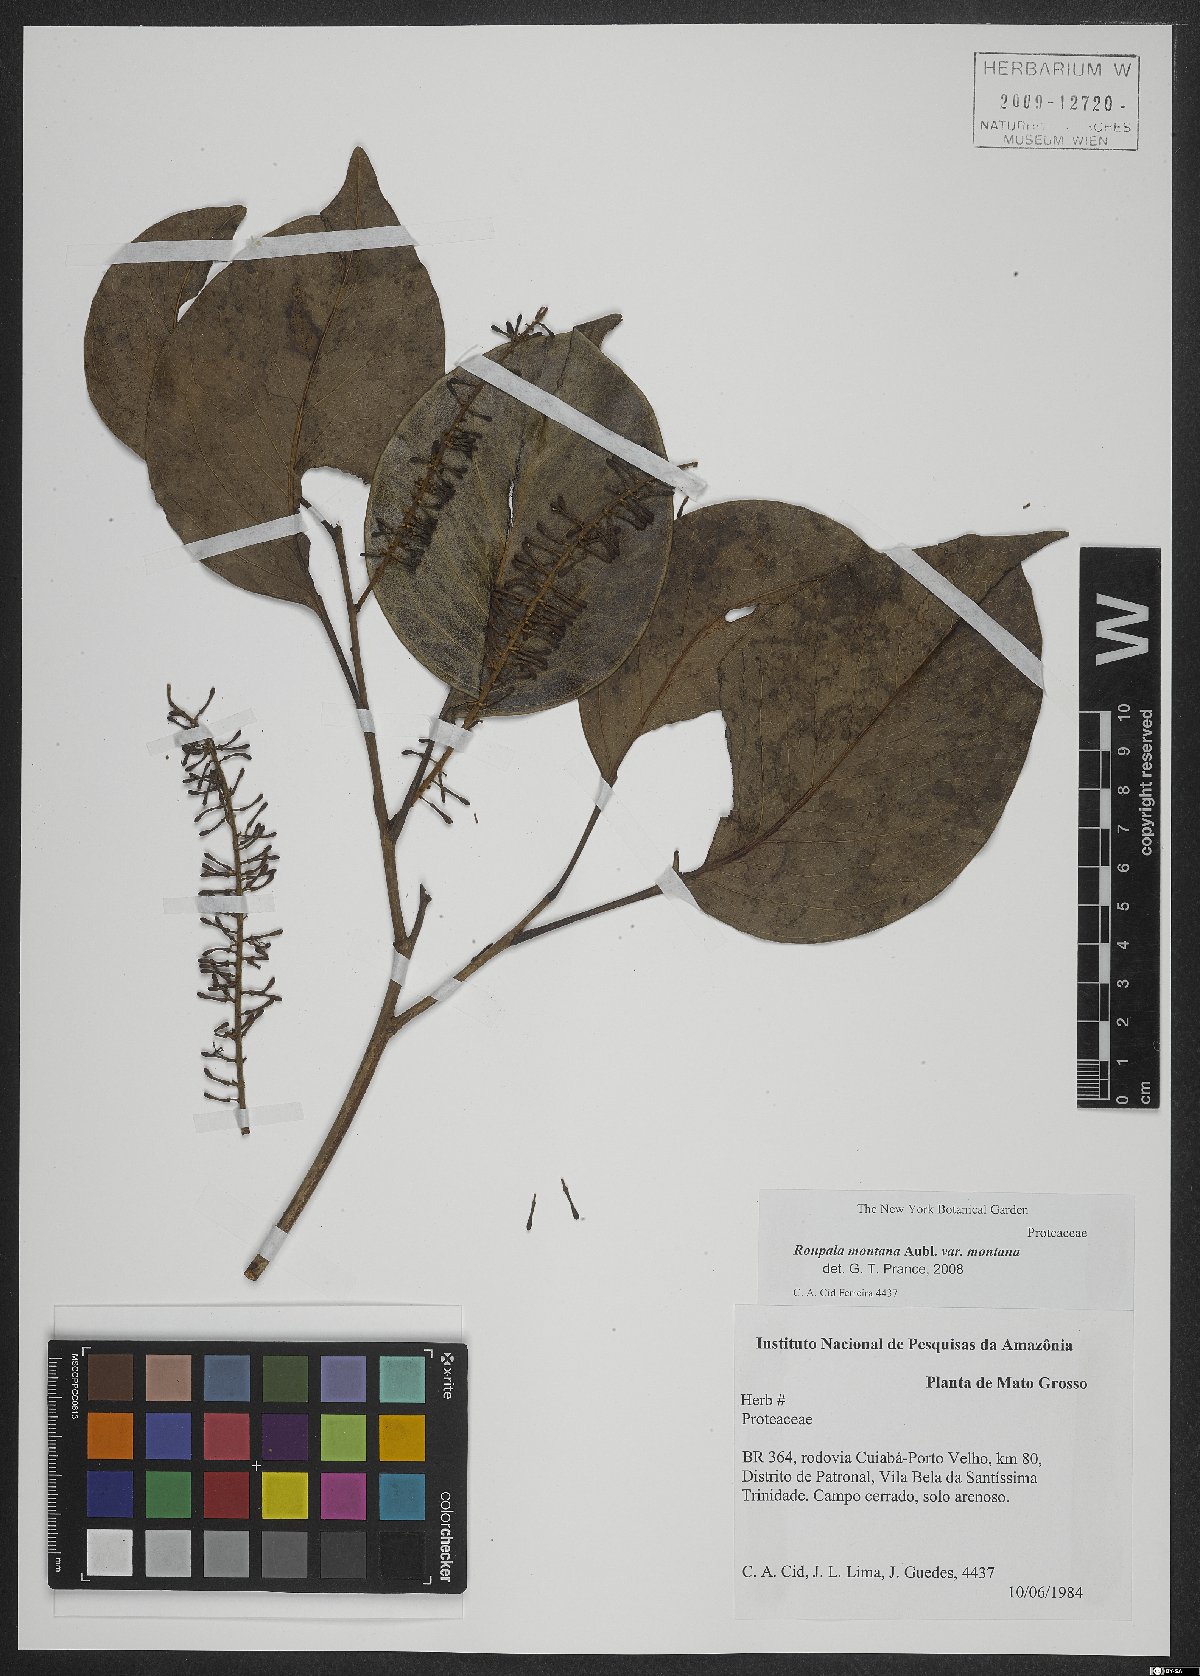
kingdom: Plantae
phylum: Tracheophyta
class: Magnoliopsida
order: Proteales
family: Proteaceae
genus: Roupala
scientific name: Roupala montana
